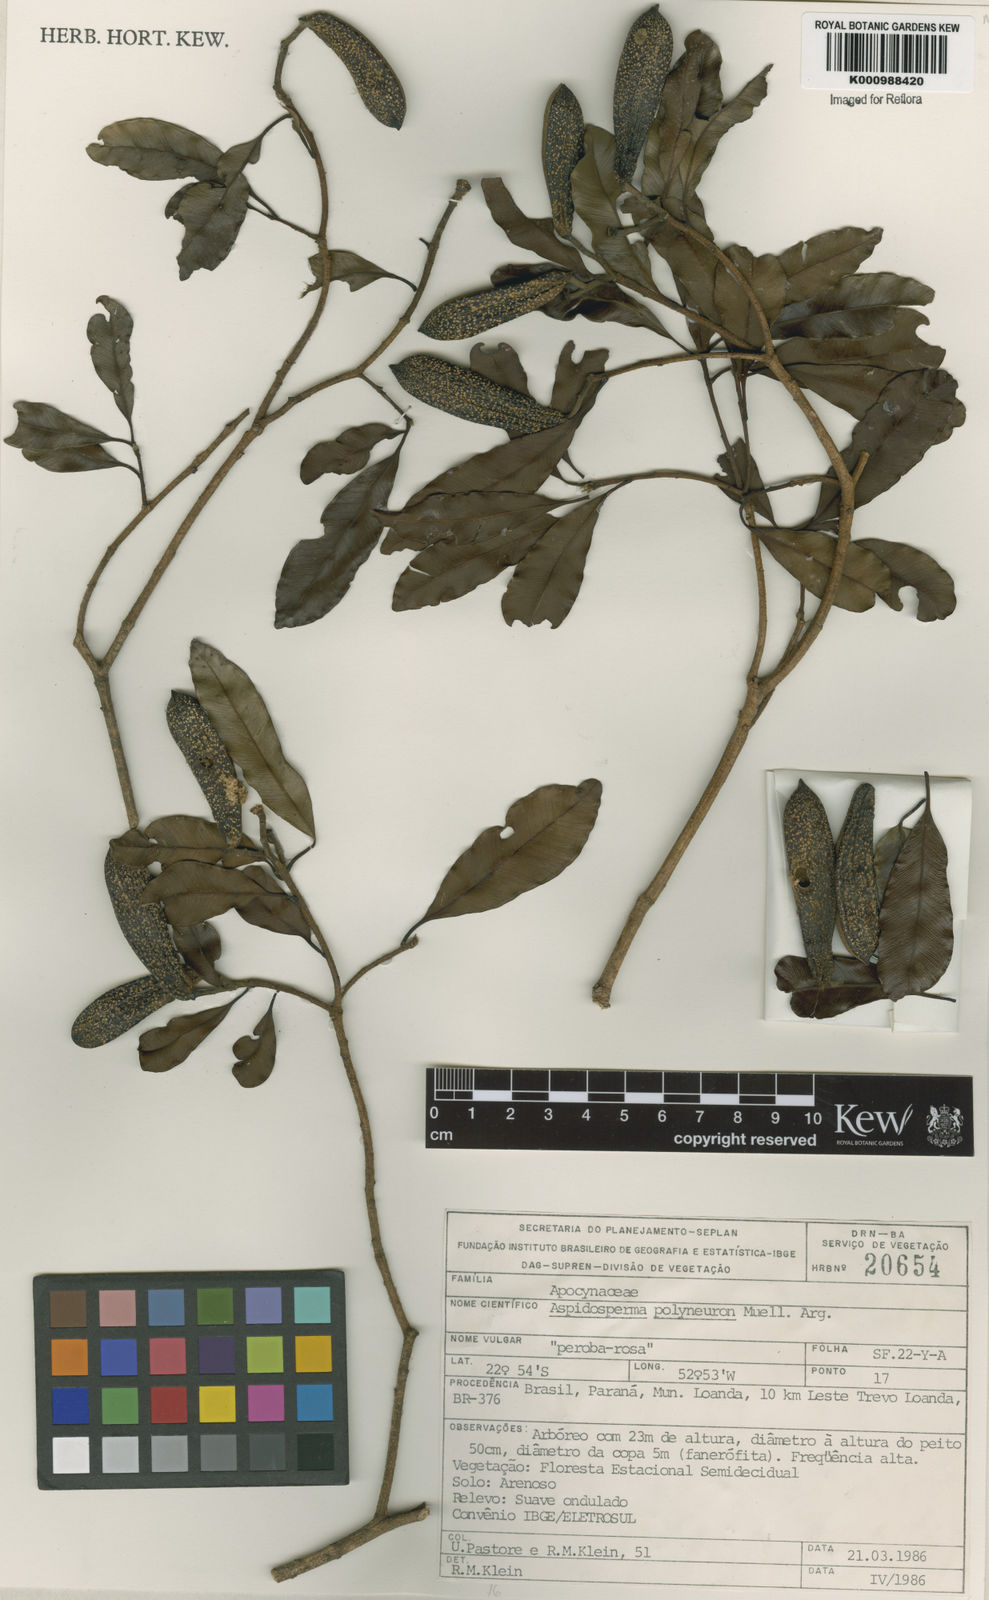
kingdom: Plantae
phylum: Tracheophyta
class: Magnoliopsida
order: Gentianales
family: Apocynaceae
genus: Aspidosperma
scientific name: Aspidosperma
